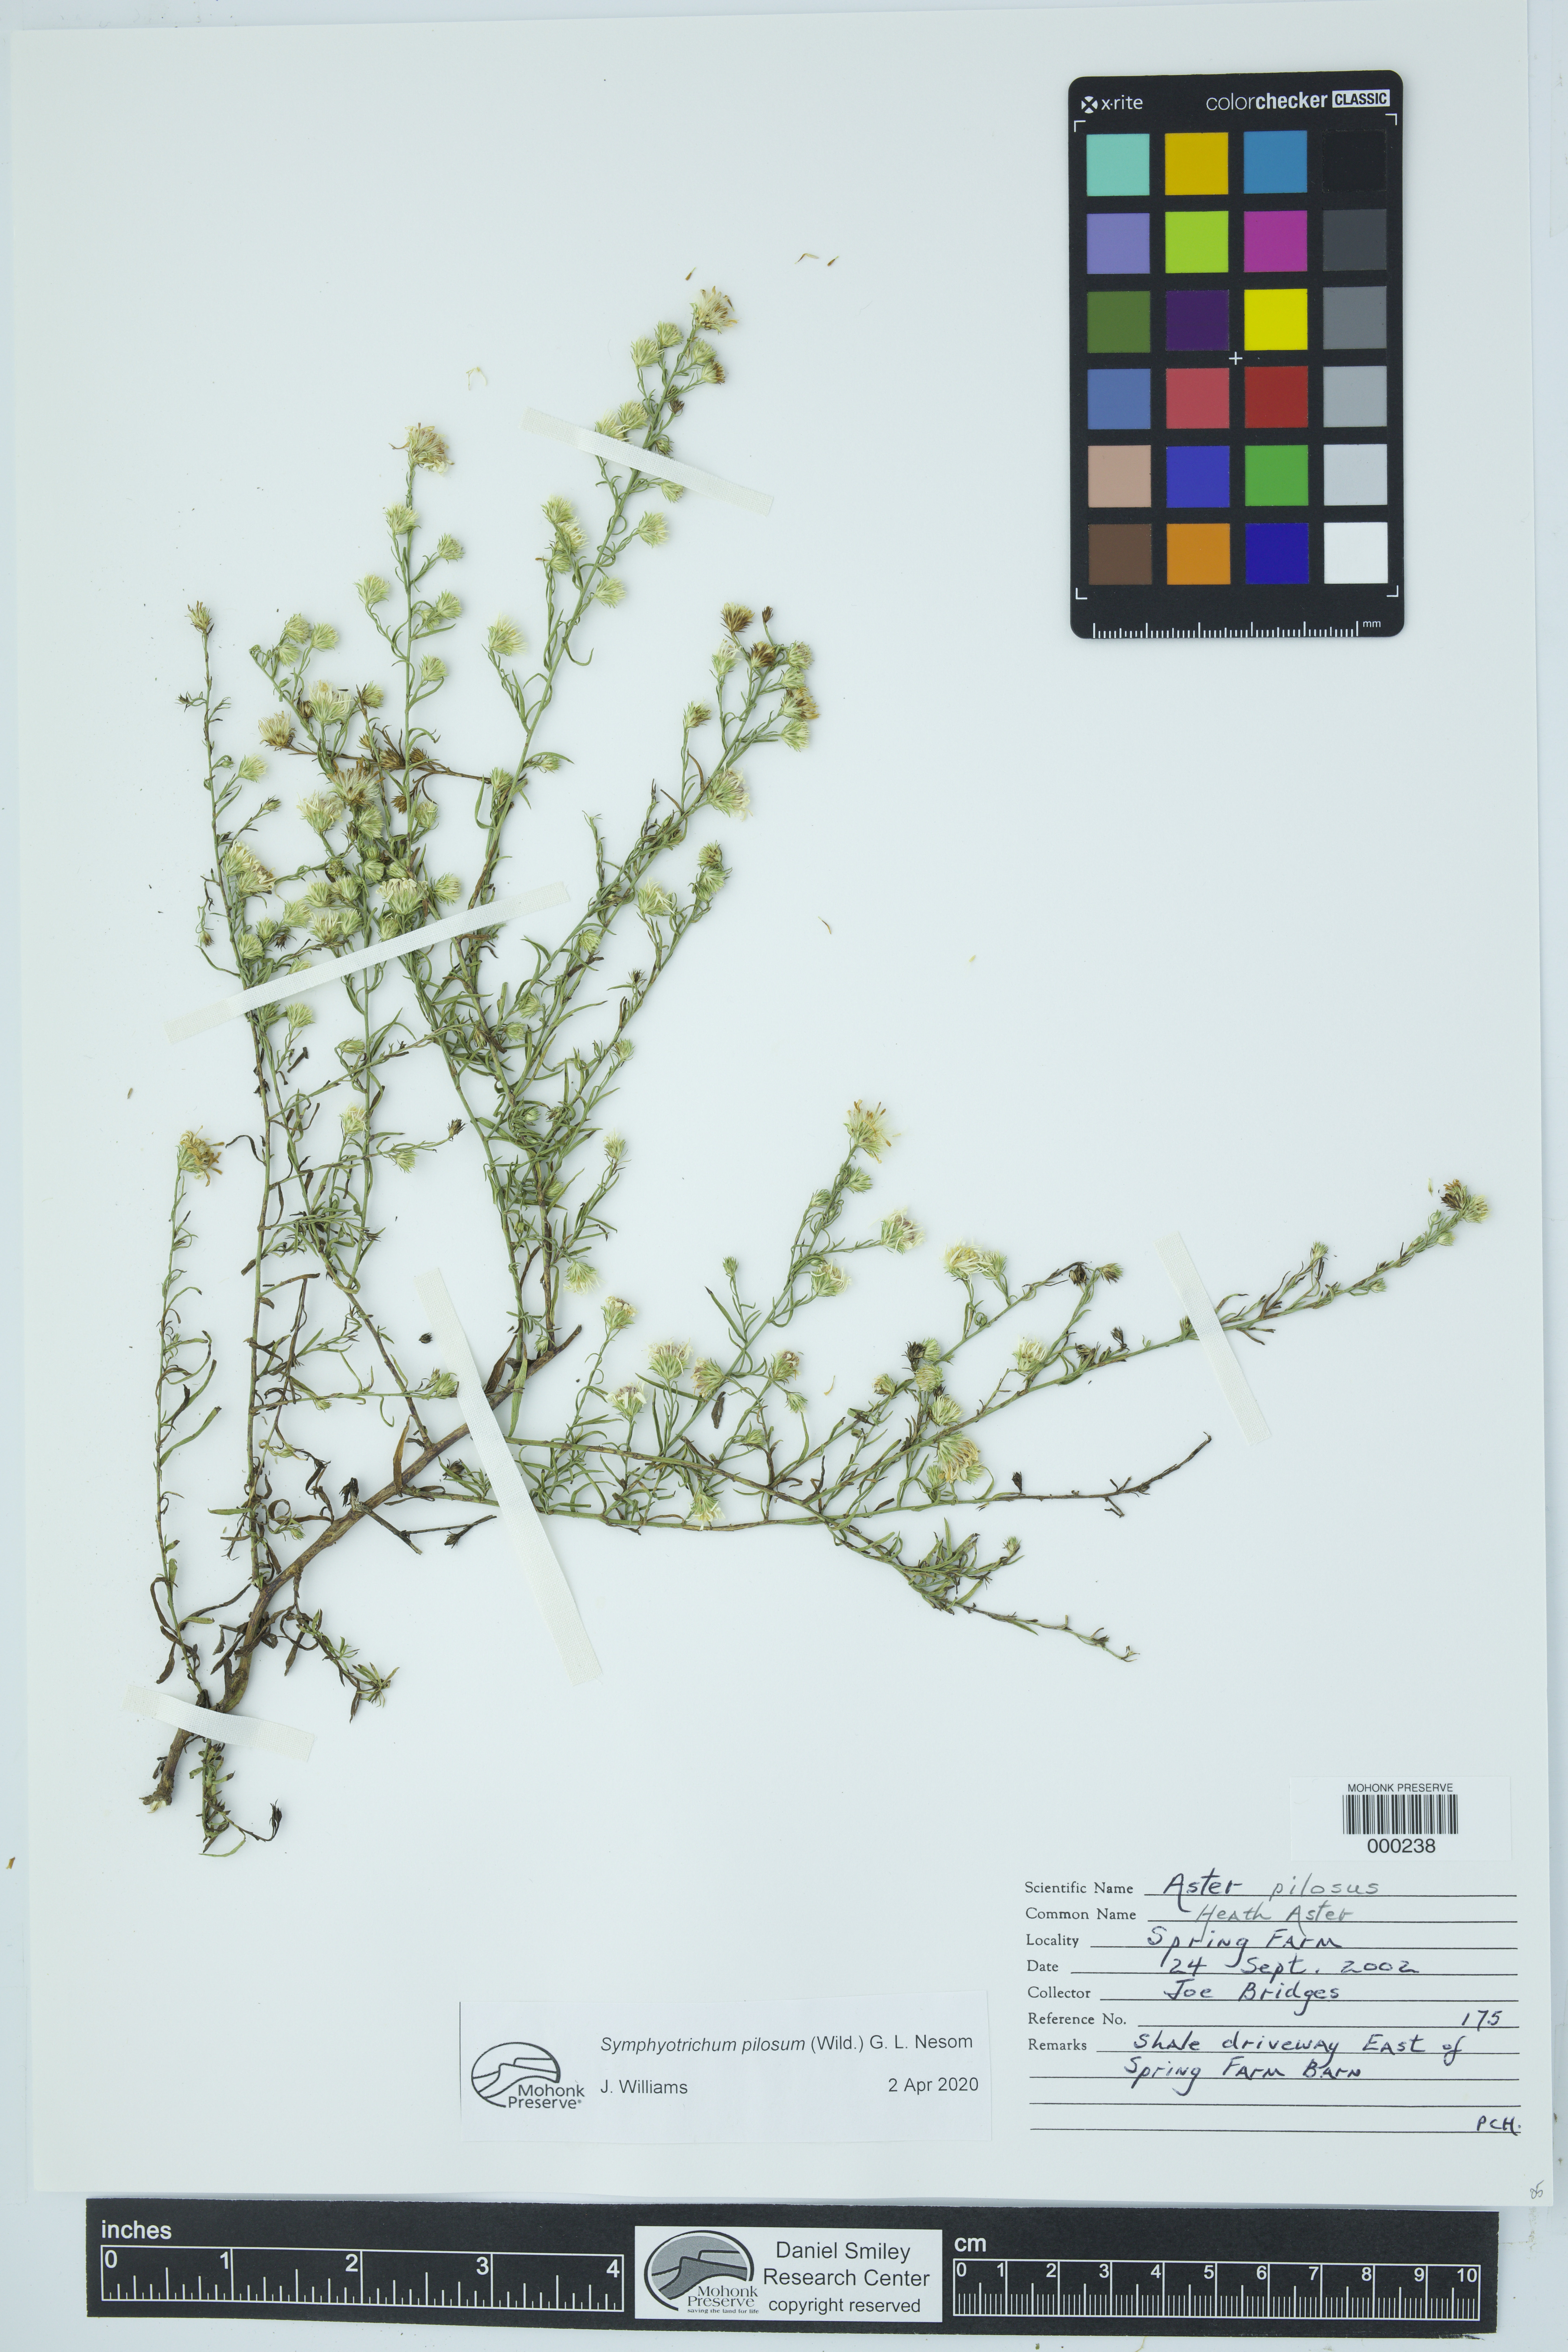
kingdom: Plantae
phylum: Tracheophyta
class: Magnoliopsida
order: Asterales
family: Asteraceae
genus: Symphyotrichum
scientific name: Symphyotrichum pilosum
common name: Awl aster
